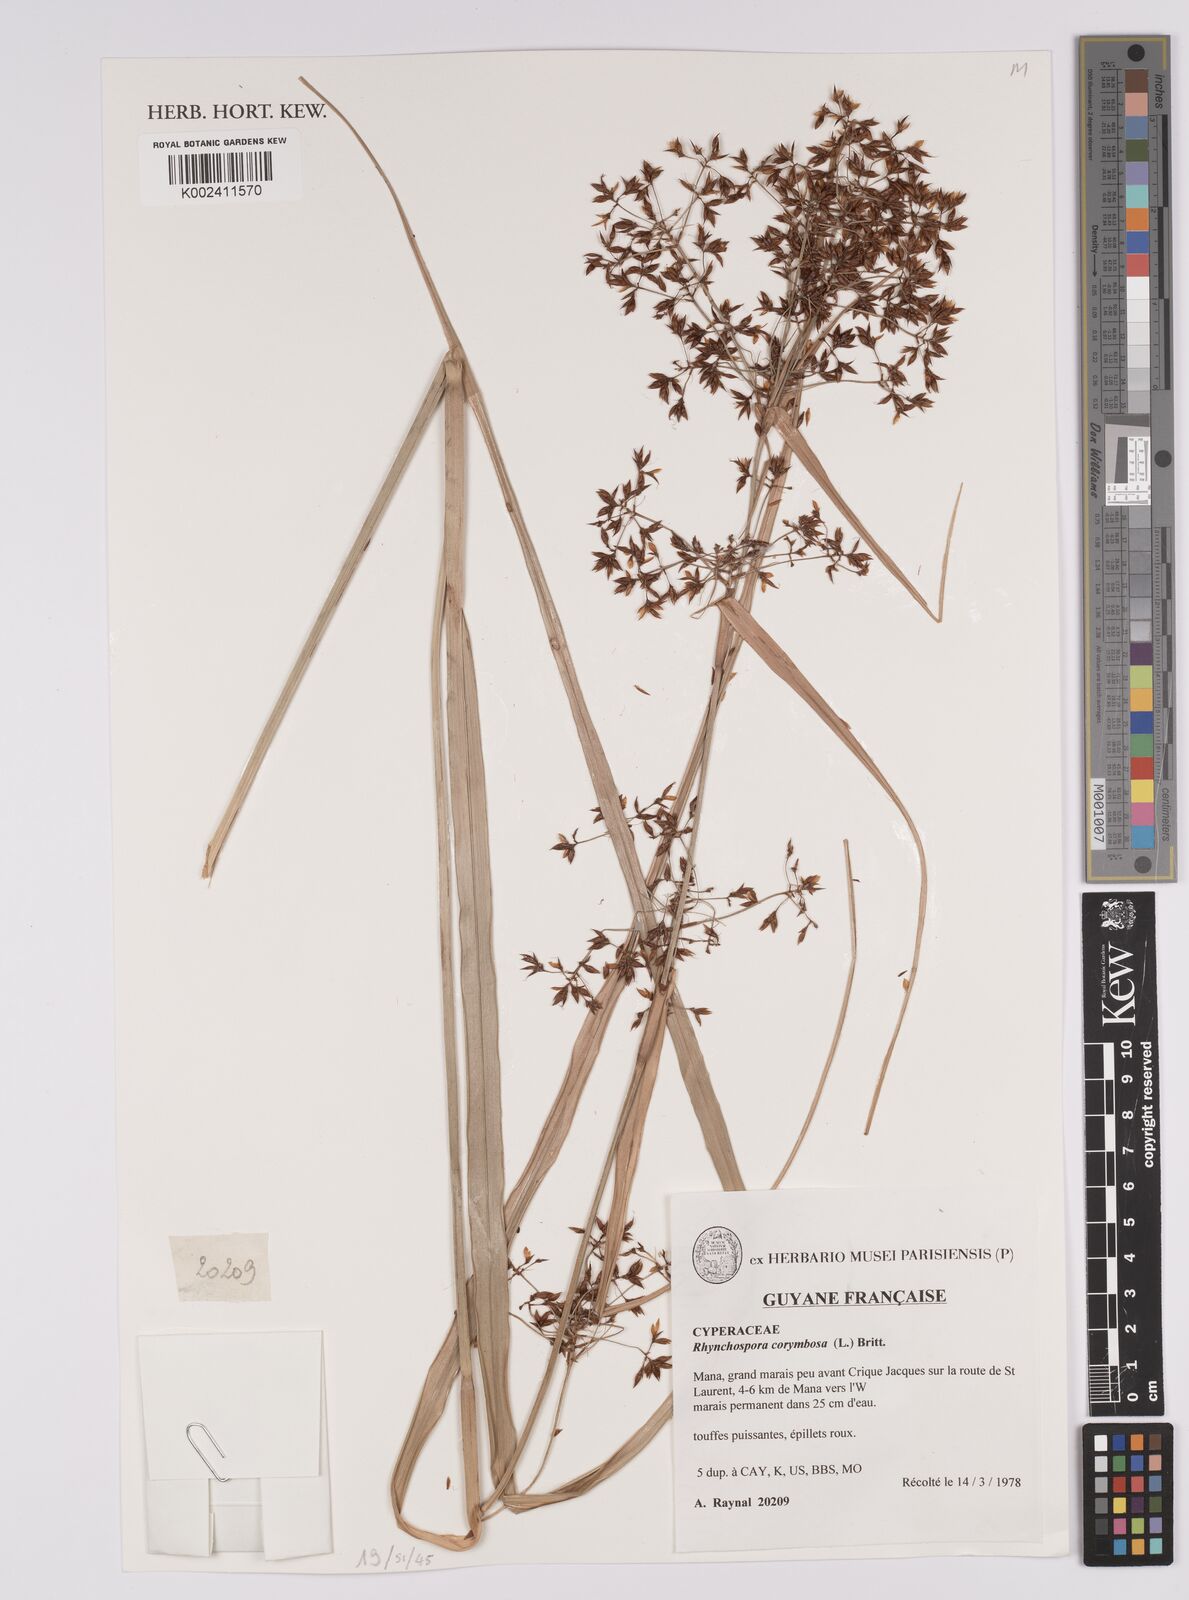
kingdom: Plantae
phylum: Tracheophyta
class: Liliopsida
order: Poales
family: Cyperaceae
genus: Rhynchospora
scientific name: Rhynchospora corymbosa
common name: Golden beak sedge
